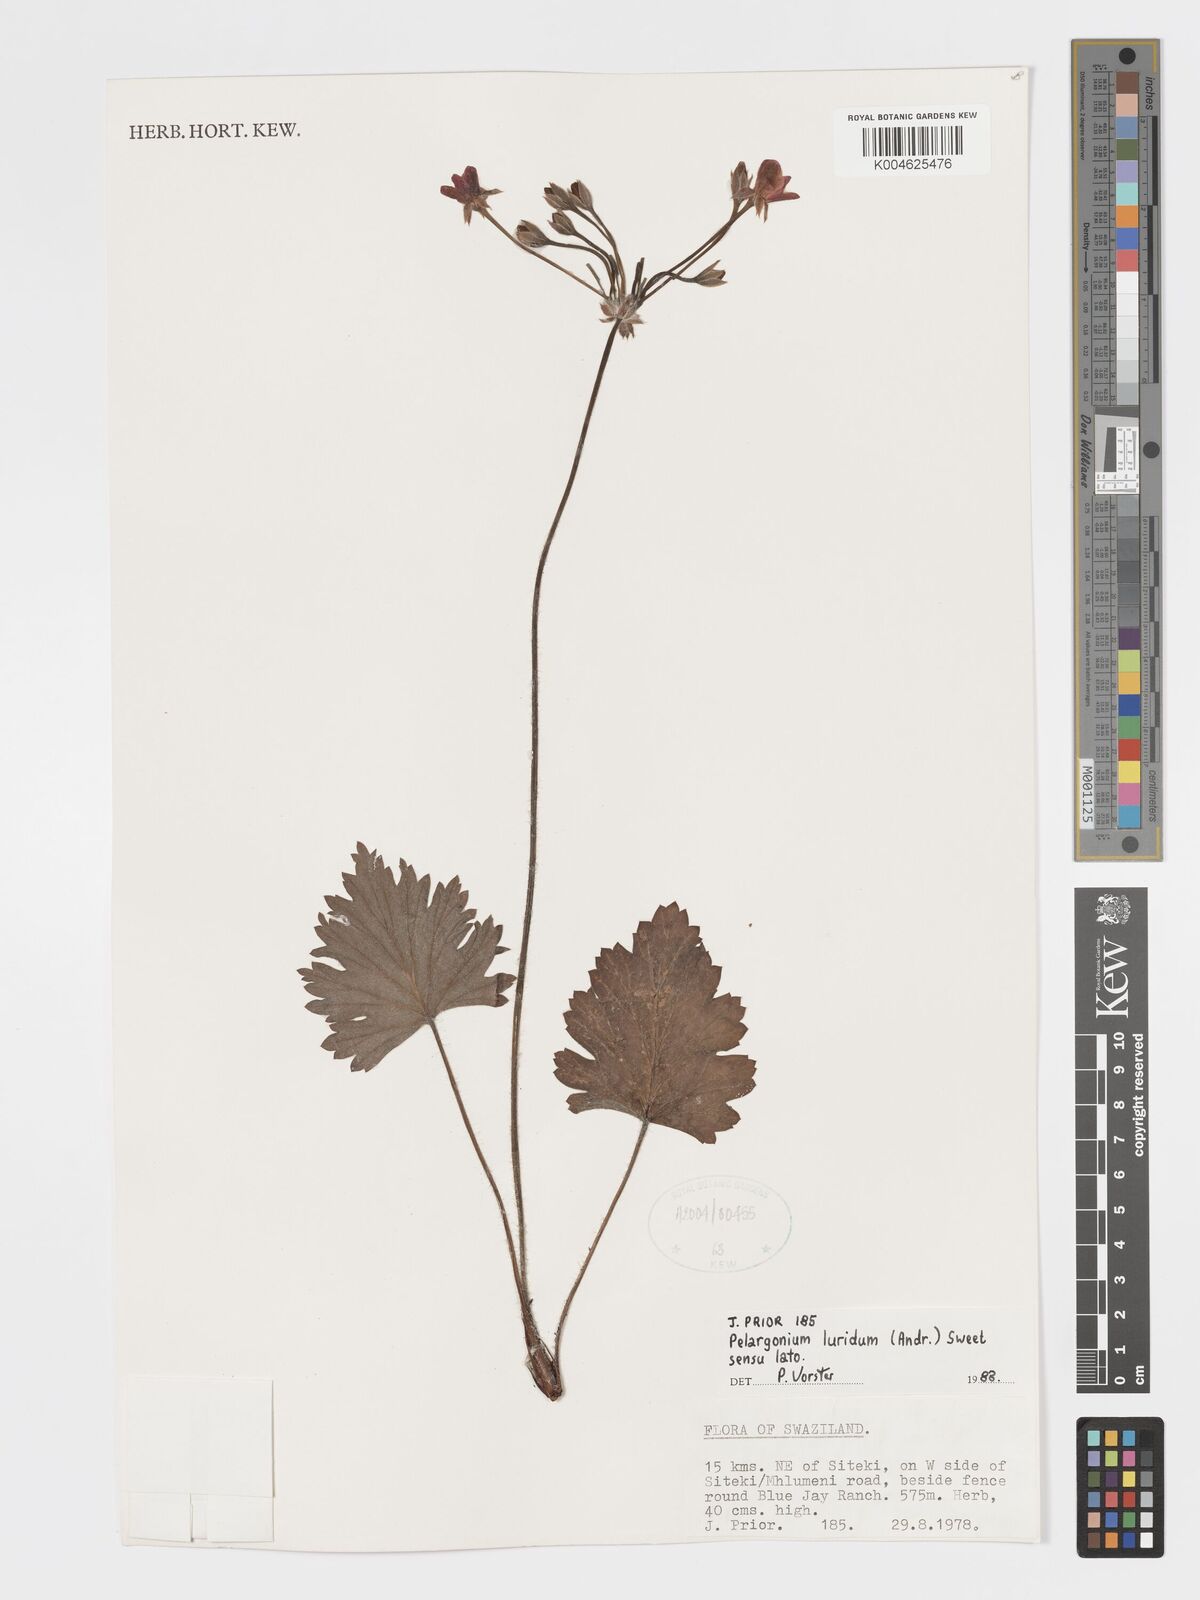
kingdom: Plantae
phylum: Tracheophyta
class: Magnoliopsida
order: Geraniales
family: Geraniaceae
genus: Pelargonium
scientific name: Pelargonium luridum
